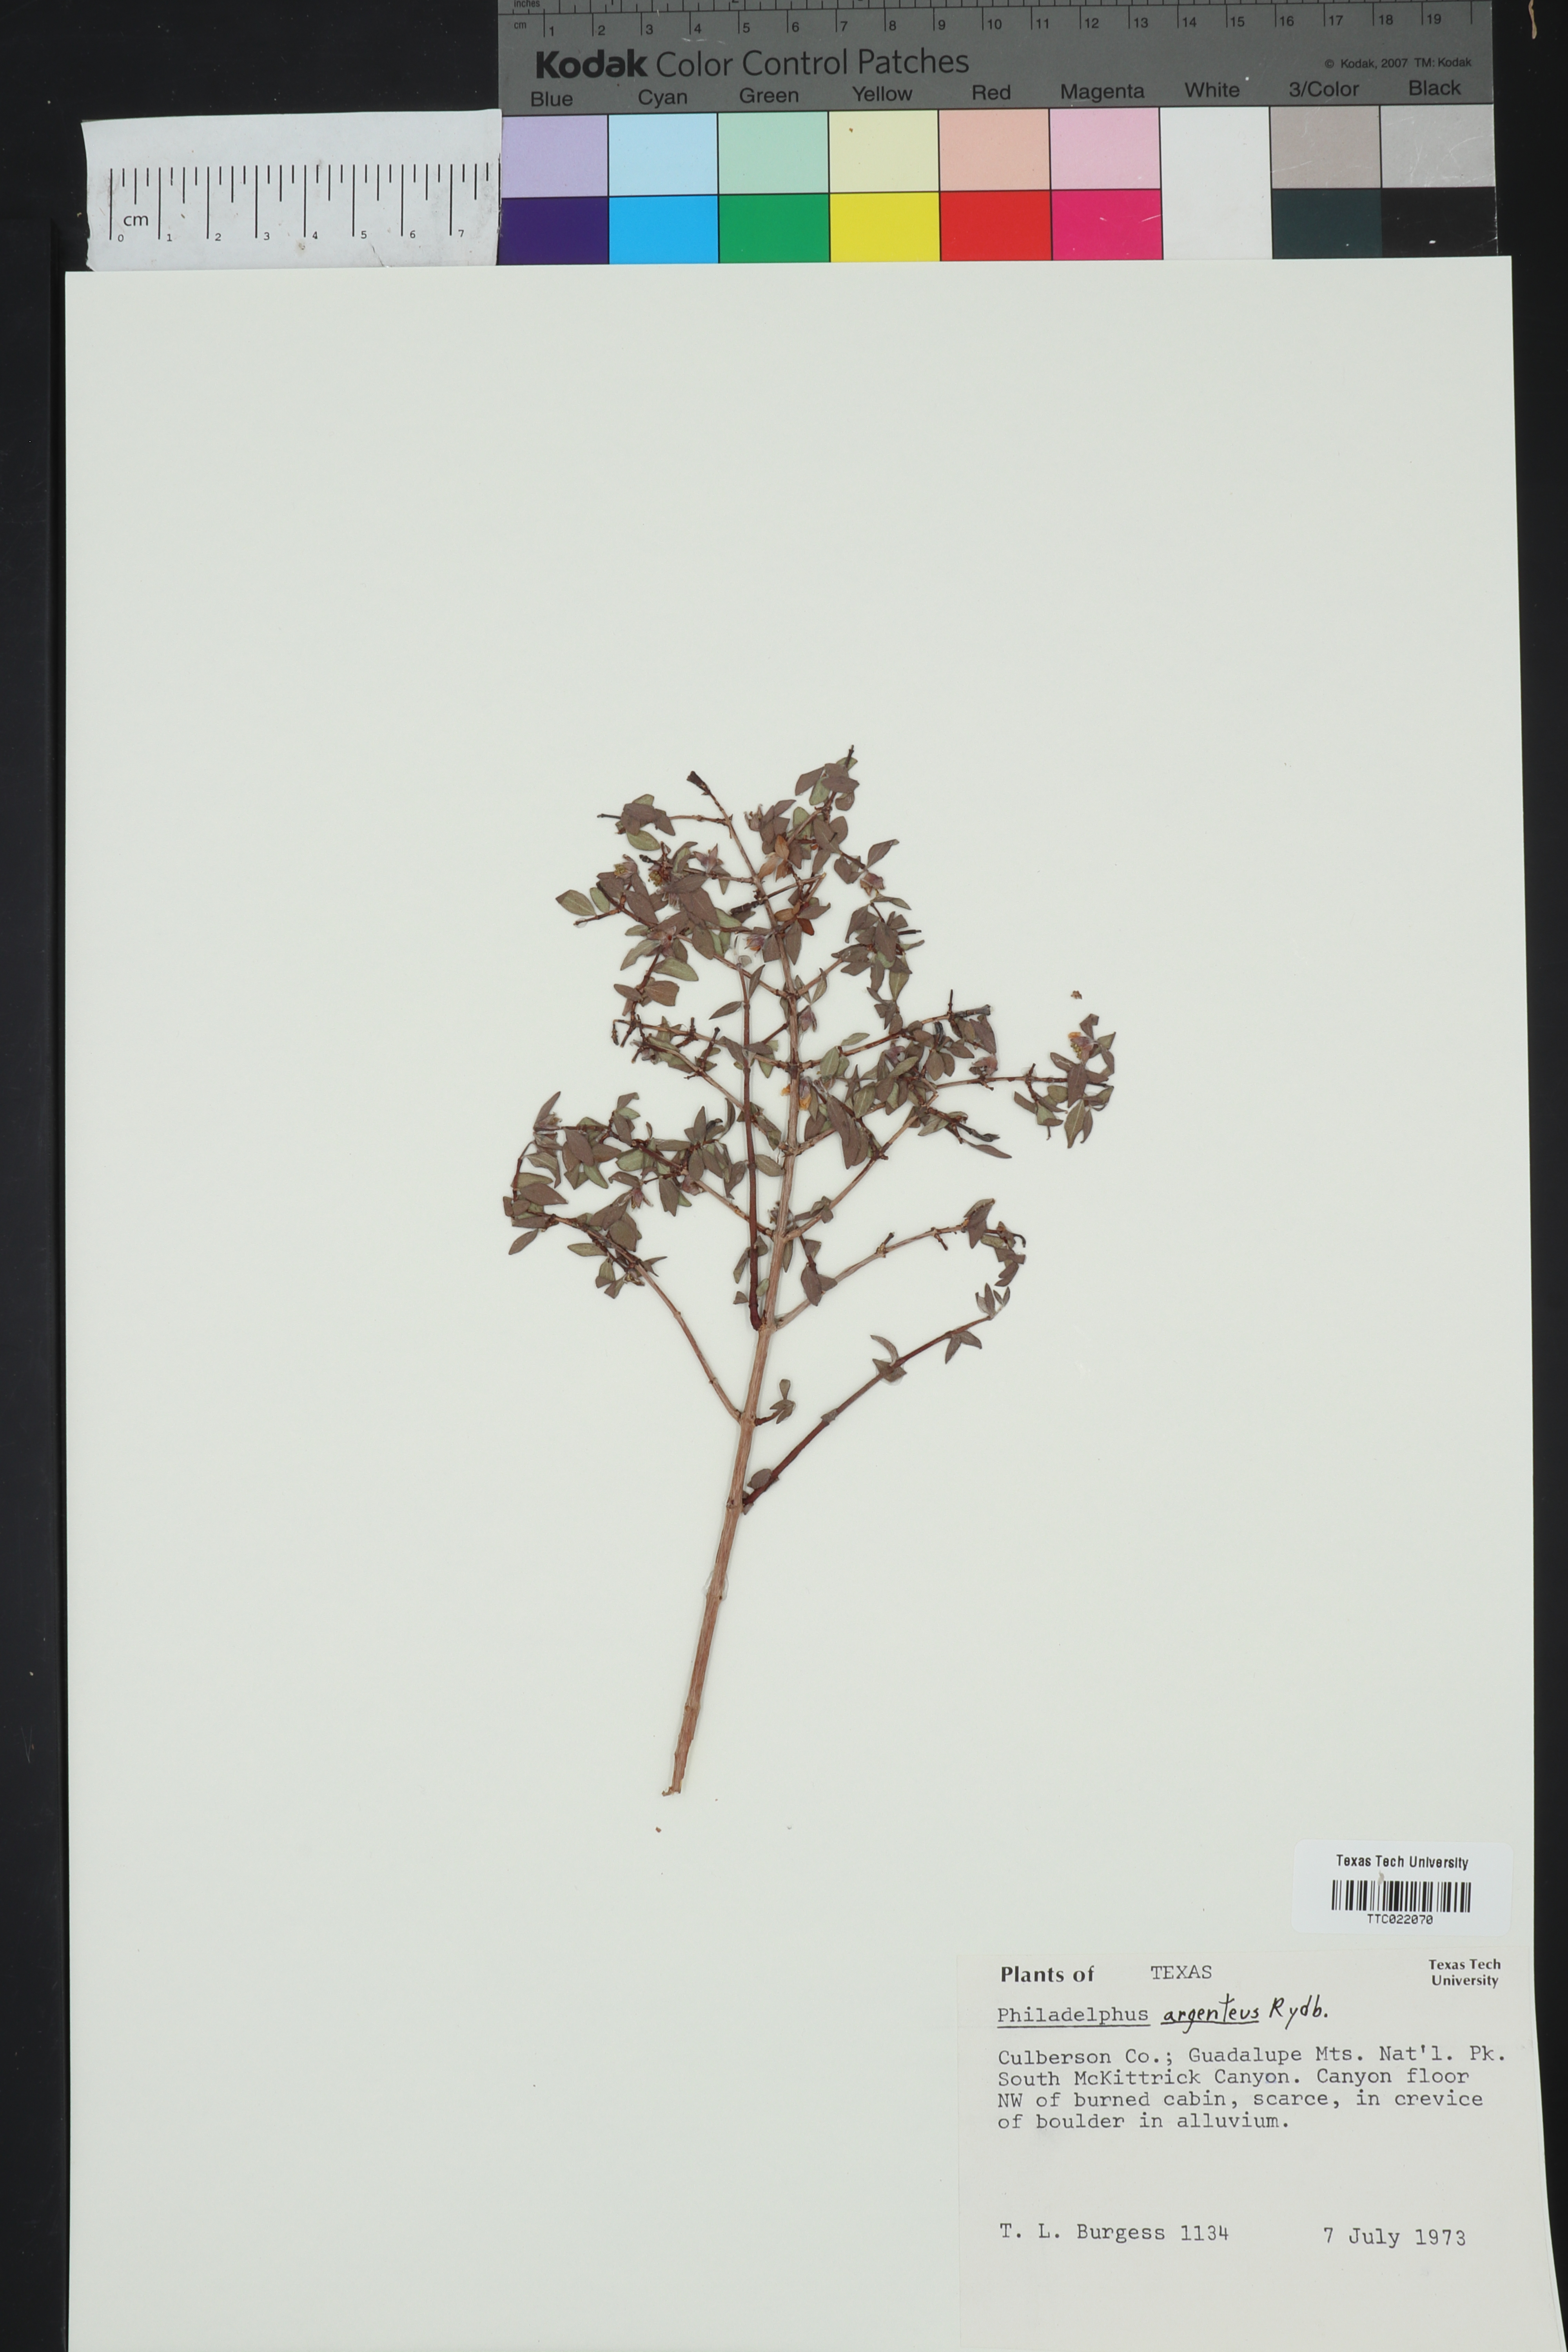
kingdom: Plantae
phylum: Tracheophyta
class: Magnoliopsida
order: Cornales
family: Hydrangeaceae
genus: Philadelphus
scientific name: Philadelphus microphyllus
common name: Desert mock orange
